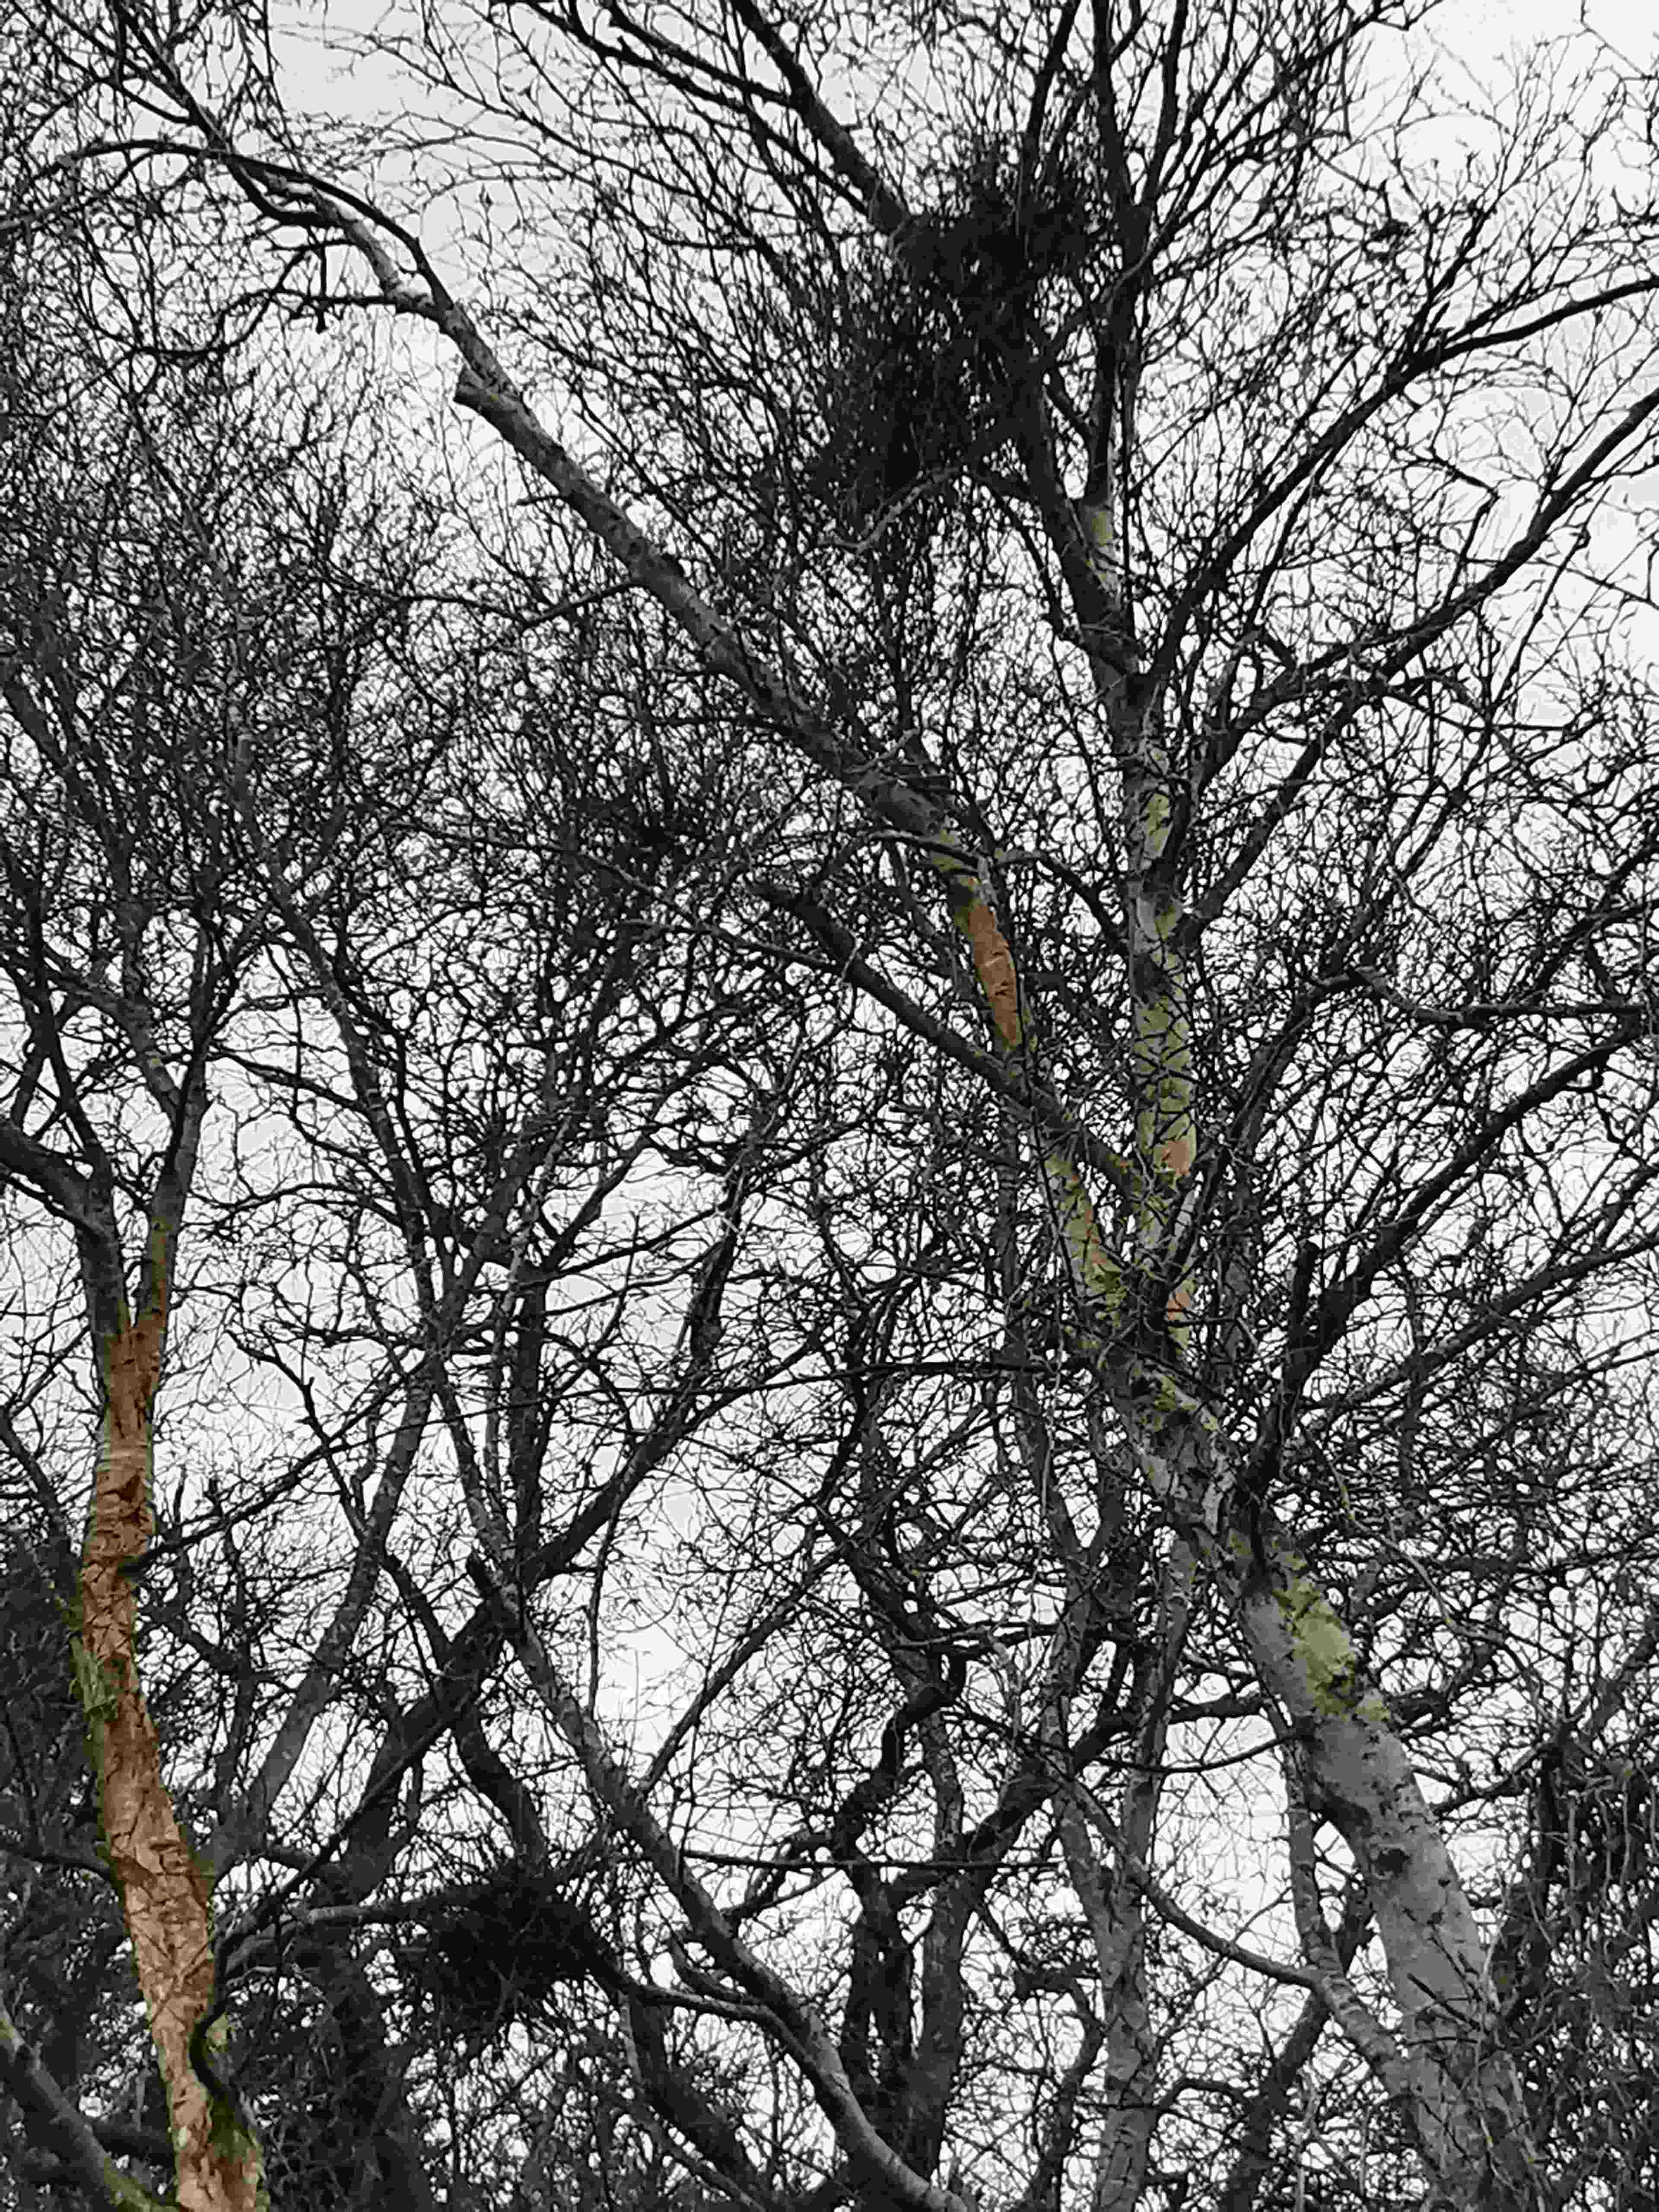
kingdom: Fungi
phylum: Ascomycota
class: Taphrinomycetes
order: Taphrinales
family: Taphrinaceae
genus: Taphrina
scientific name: Taphrina betulina
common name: hekse-sækdug
